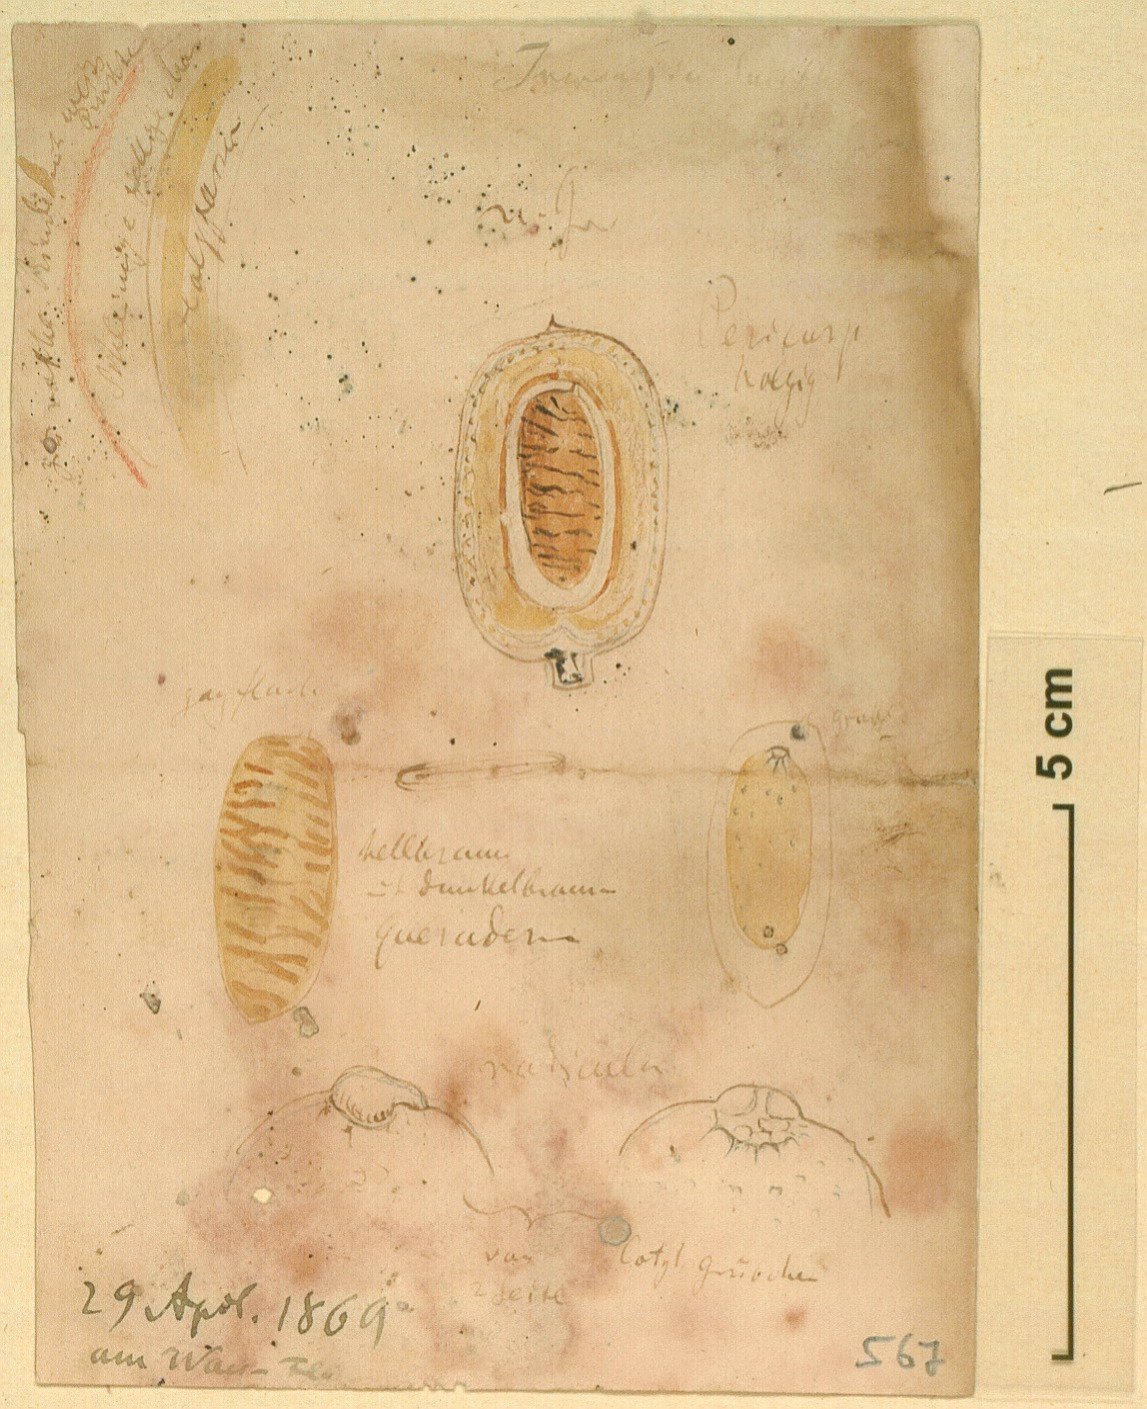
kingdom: Plantae
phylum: Tracheophyta
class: Magnoliopsida
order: Malpighiales
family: Irvingiaceae
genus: Irvingia
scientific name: Irvingia smithii
